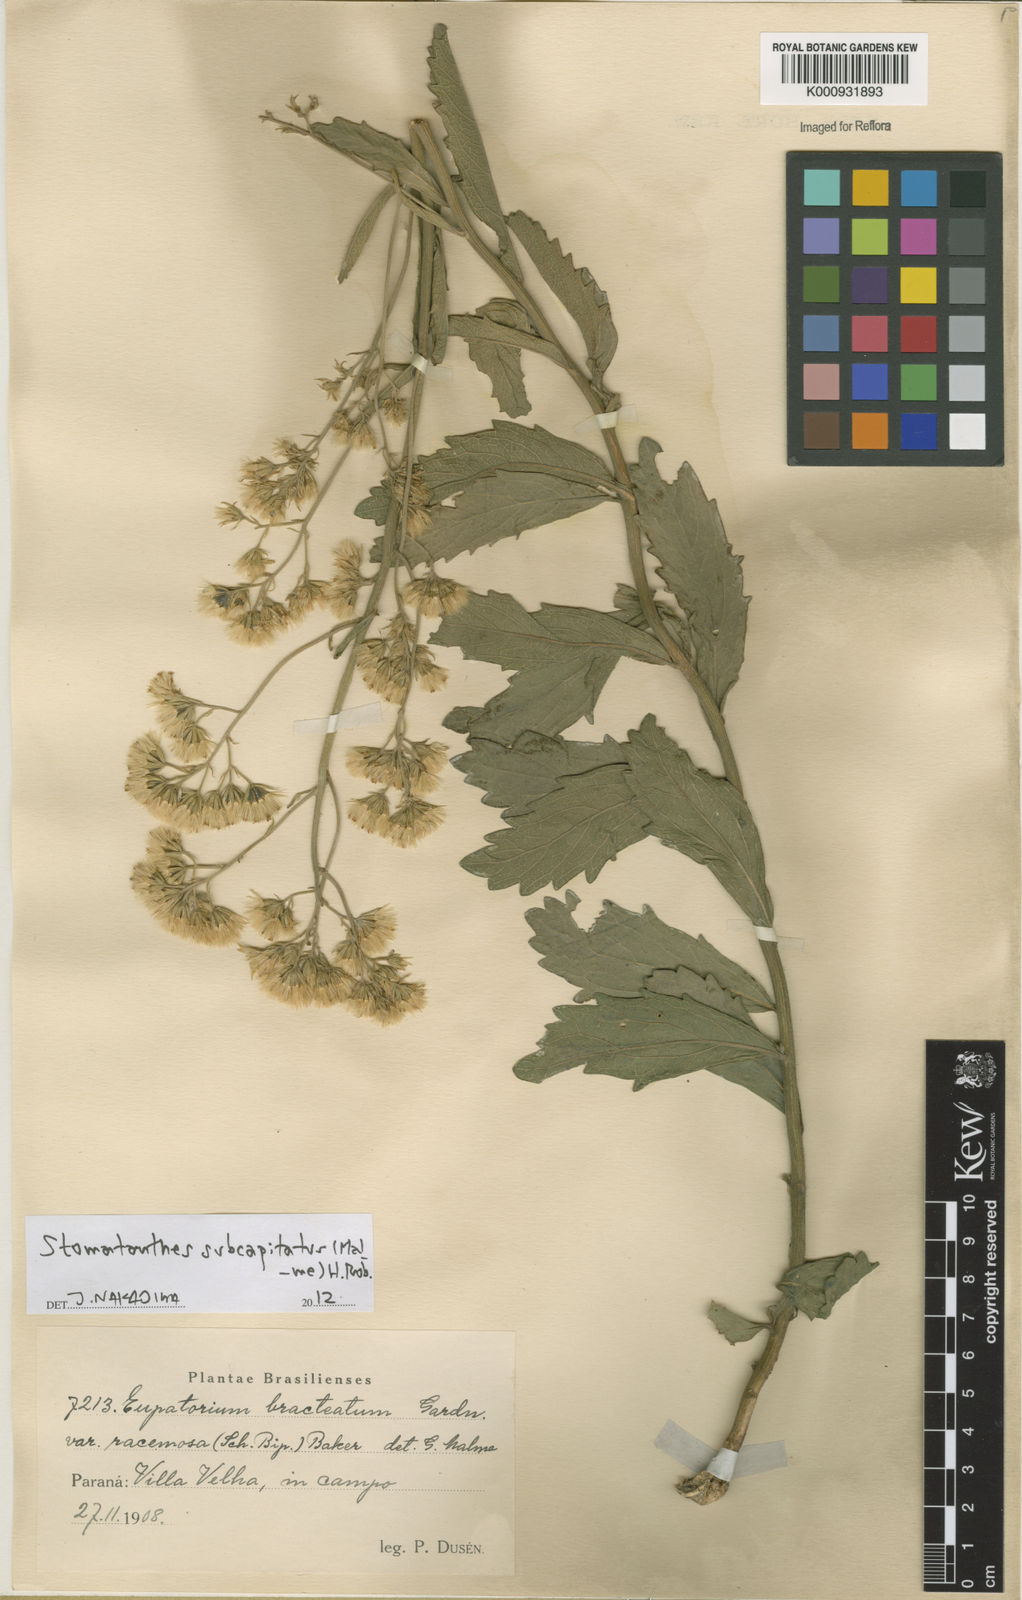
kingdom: Plantae
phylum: Tracheophyta
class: Magnoliopsida
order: Asterales
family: Asteraceae
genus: Stomatanthes
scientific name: Stomatanthes subcapitatus
